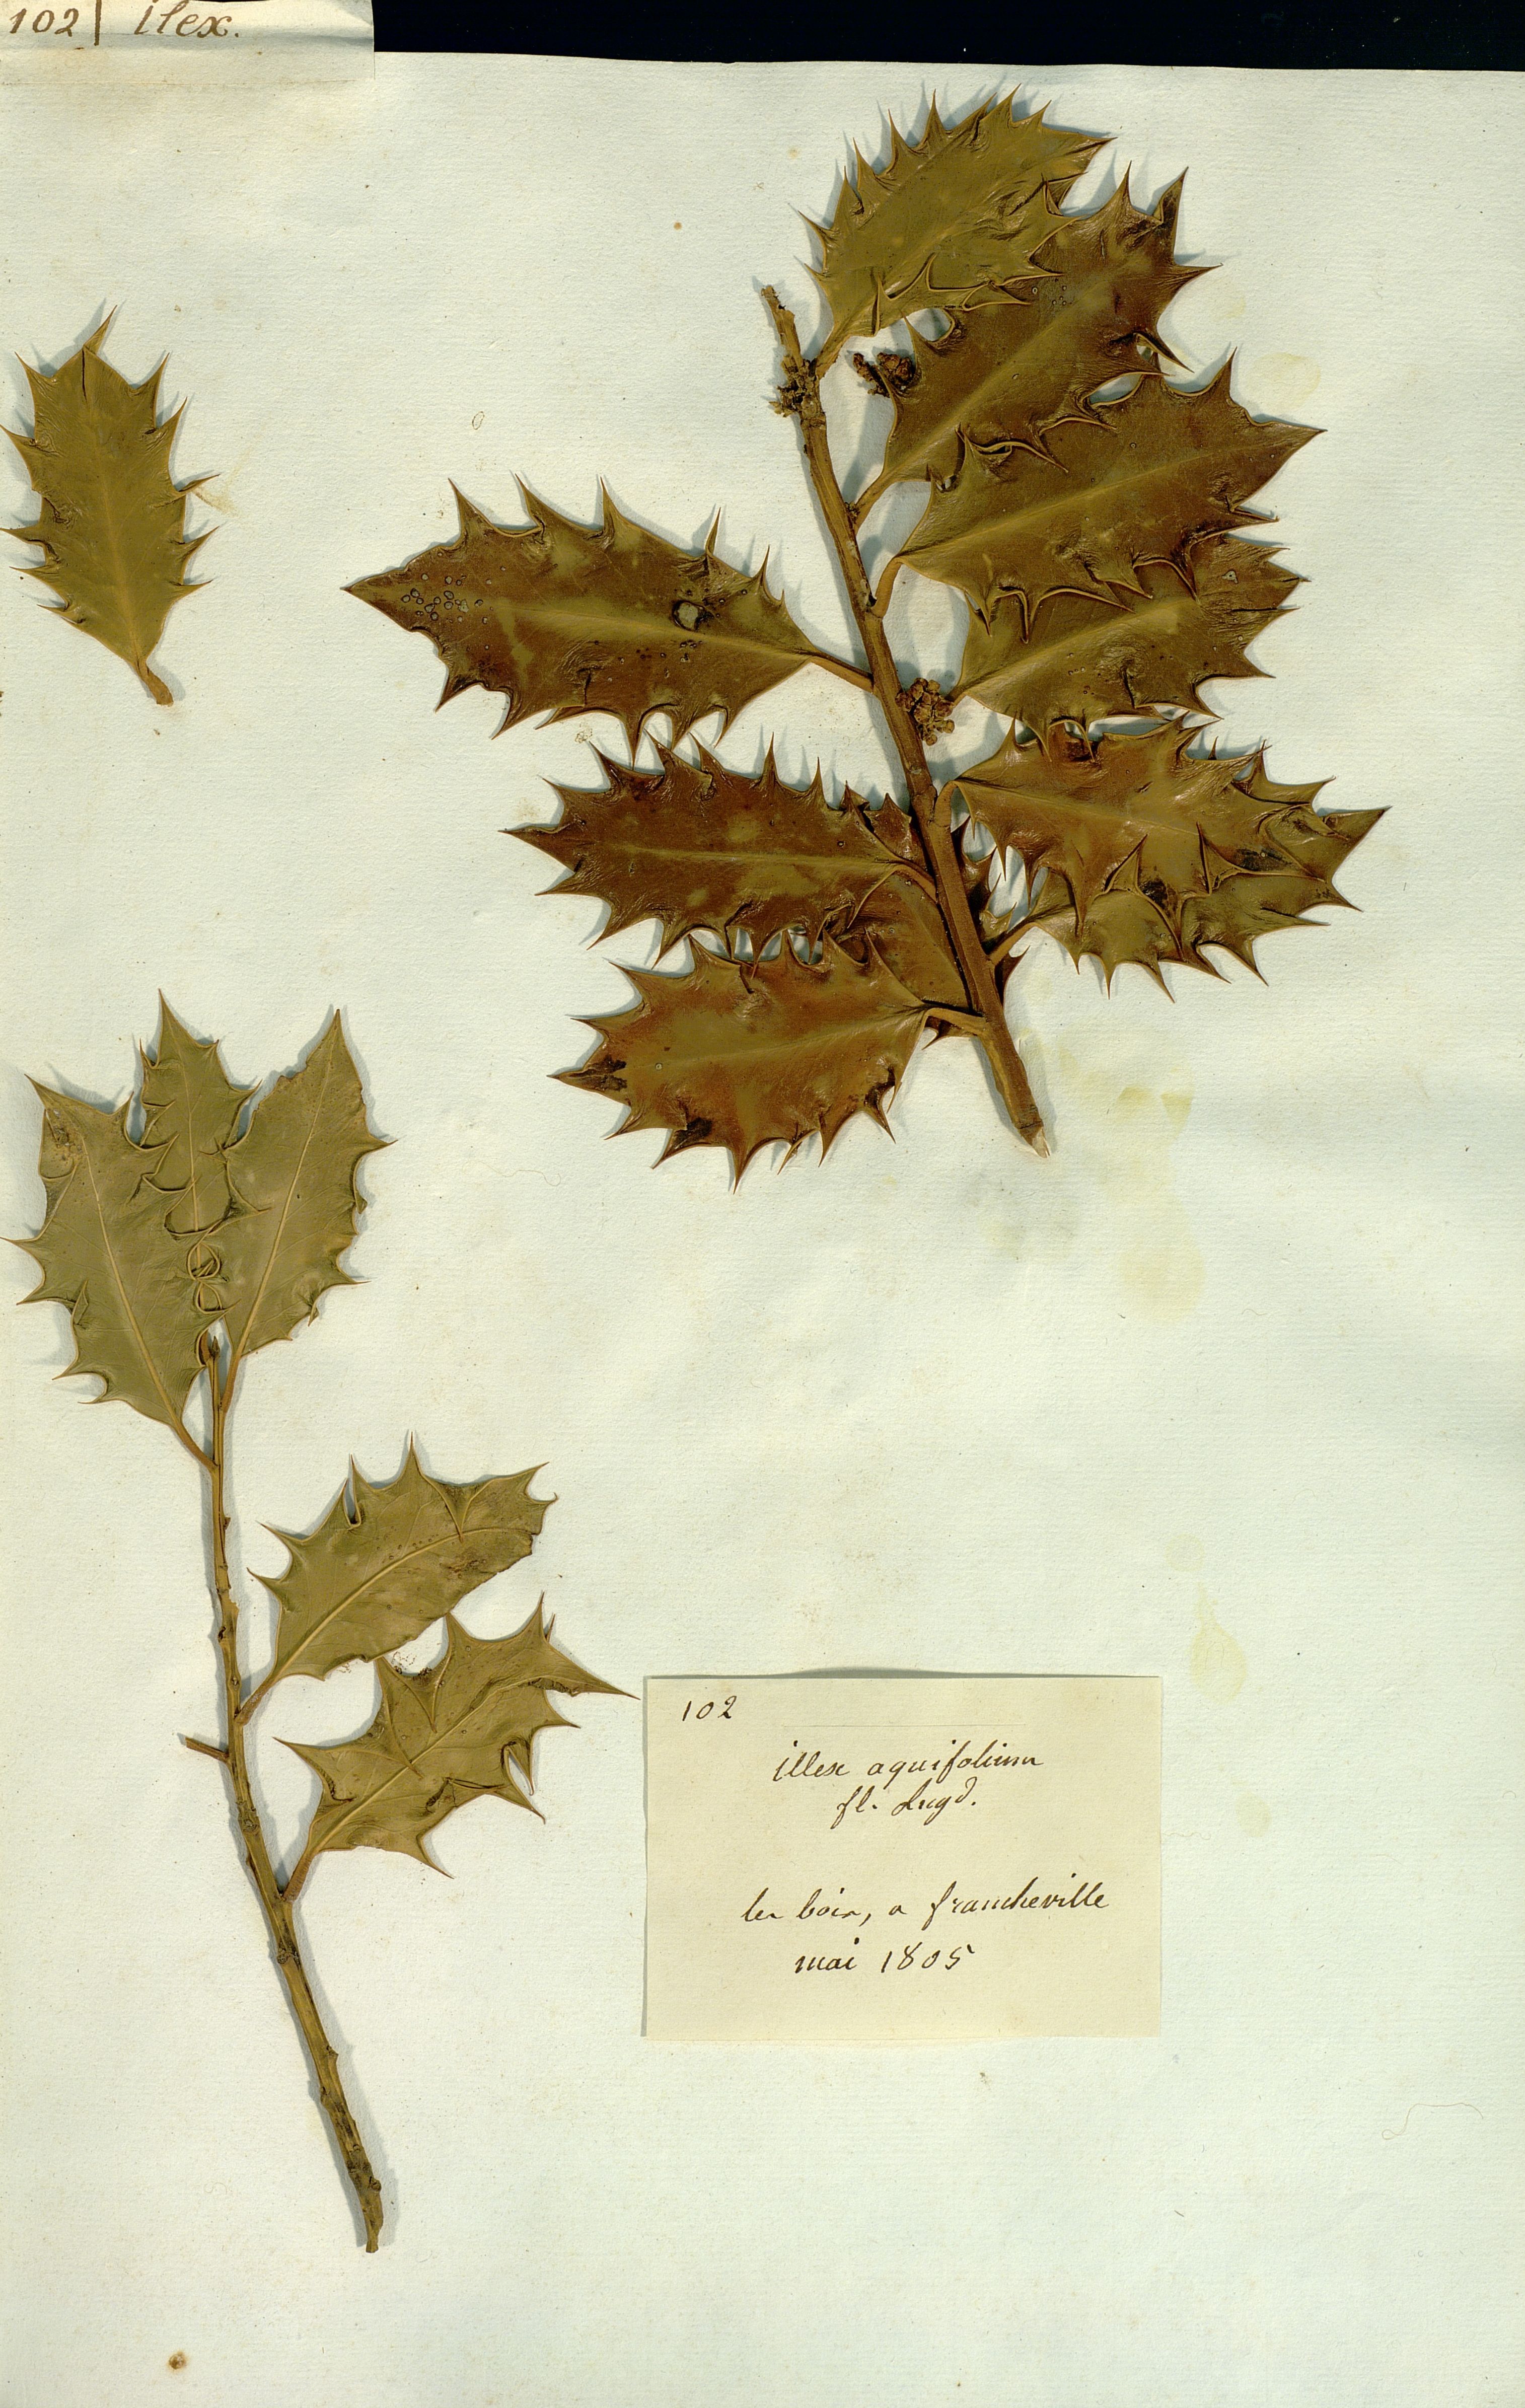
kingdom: Plantae
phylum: Tracheophyta
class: Magnoliopsida
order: Aquifoliales
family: Aquifoliaceae
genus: Ilex
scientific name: Ilex aquifolium
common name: English holly
